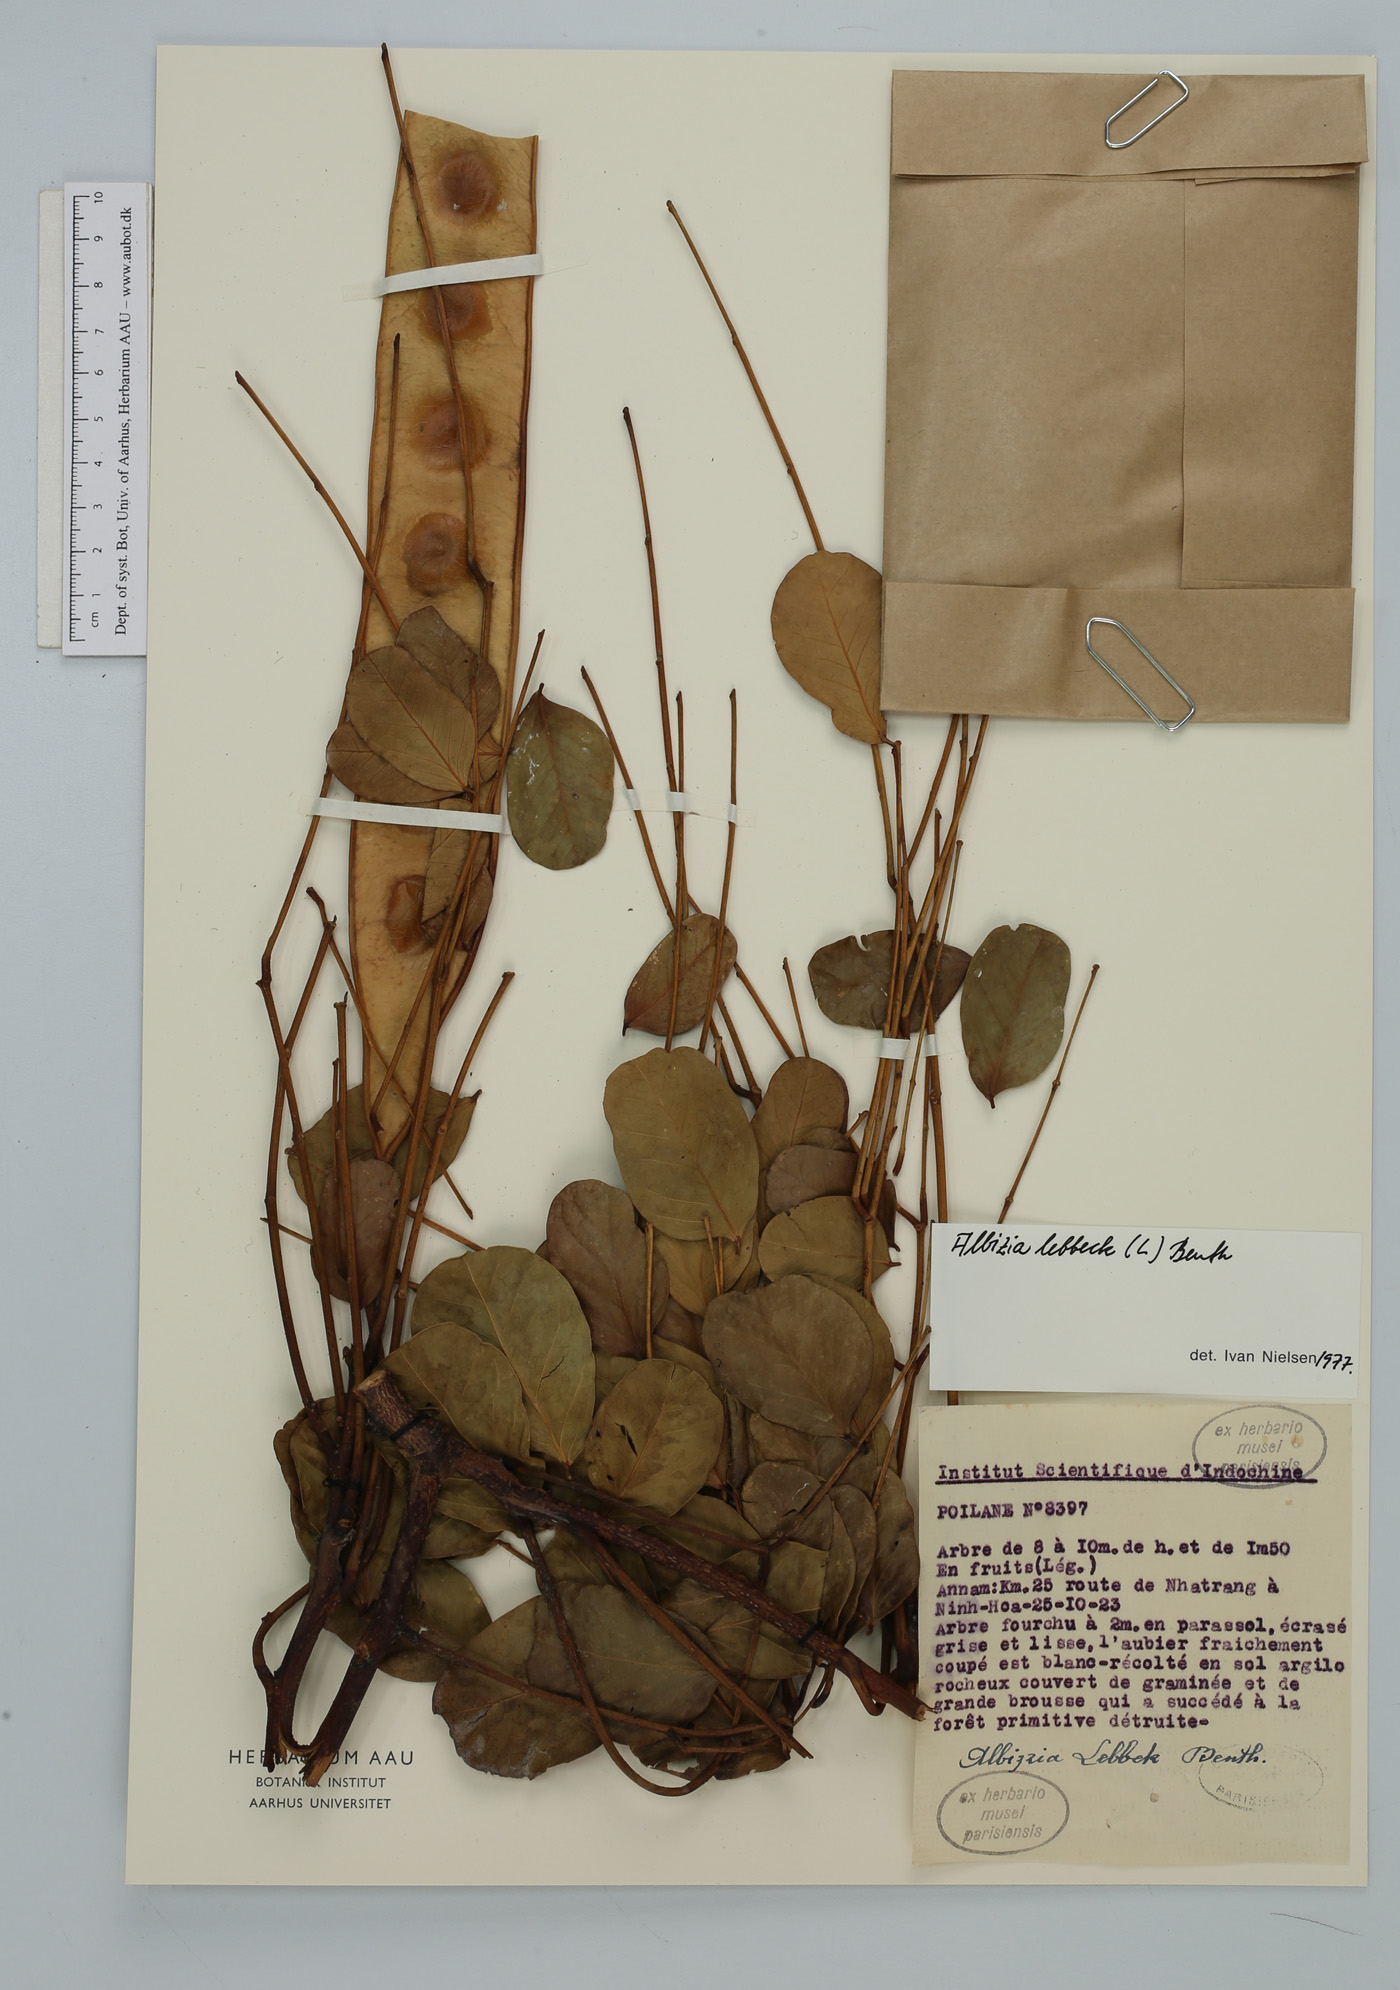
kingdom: Plantae
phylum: Tracheophyta
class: Magnoliopsida
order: Fabales
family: Fabaceae
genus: Albizia
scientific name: Albizia lebbeck
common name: Woman's tongue
